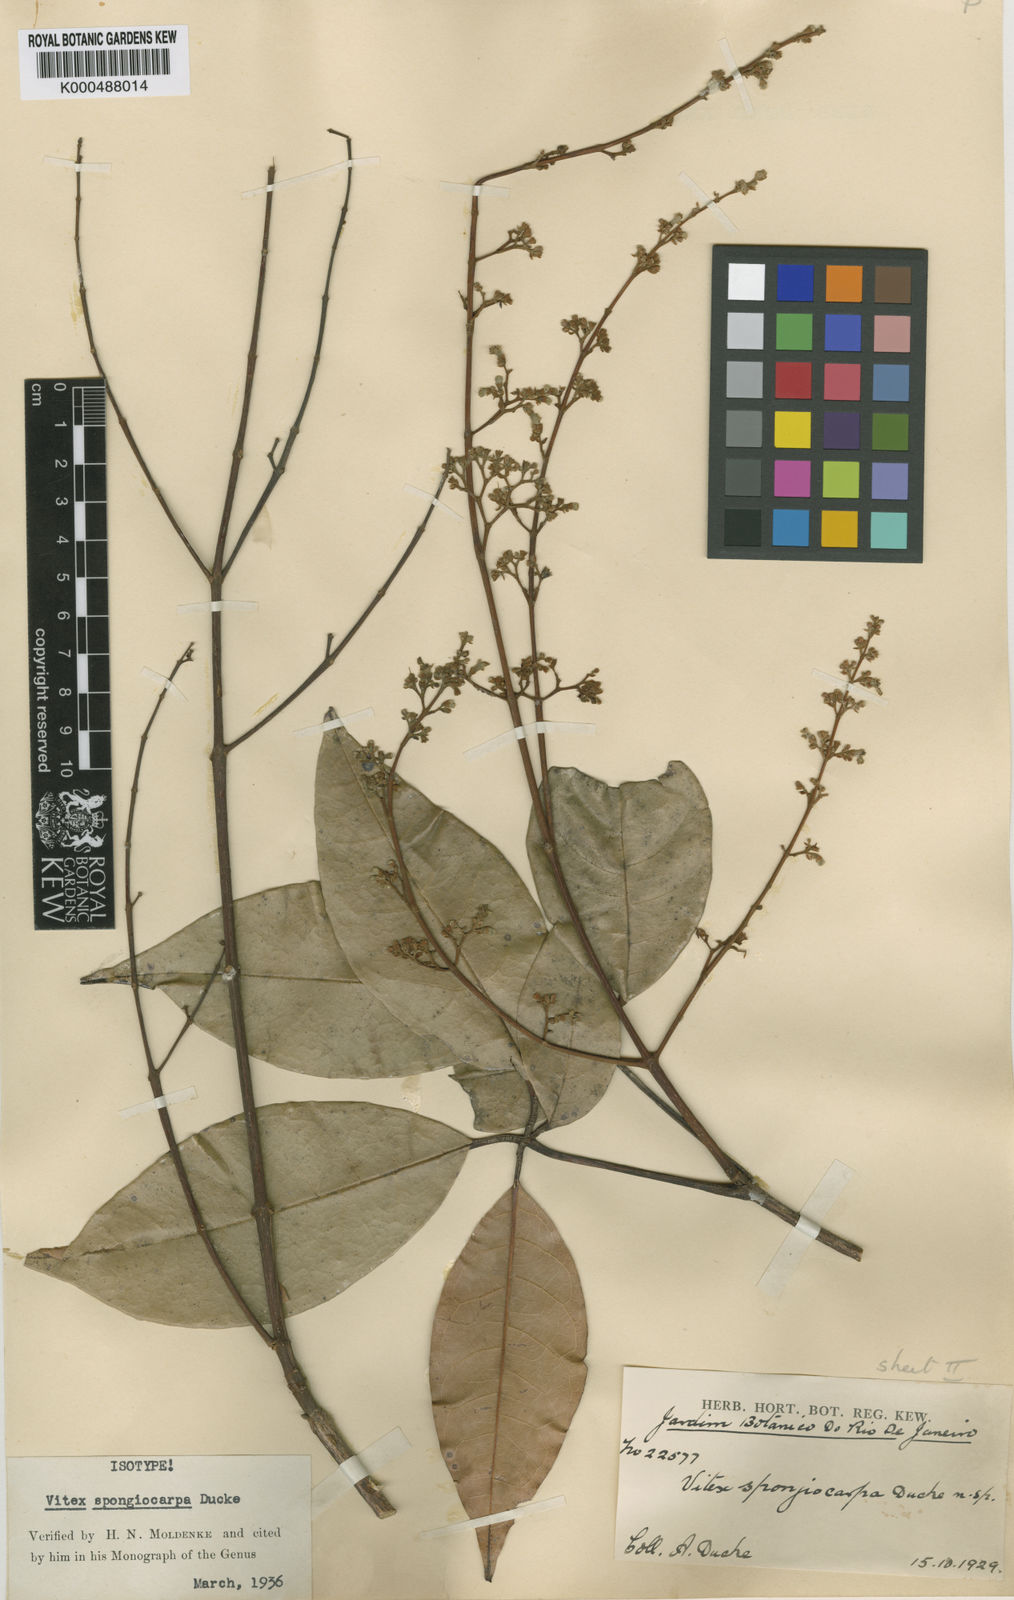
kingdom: Plantae
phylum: Tracheophyta
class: Magnoliopsida
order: Lamiales
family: Lamiaceae
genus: Vitex
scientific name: Vitex sprucei
